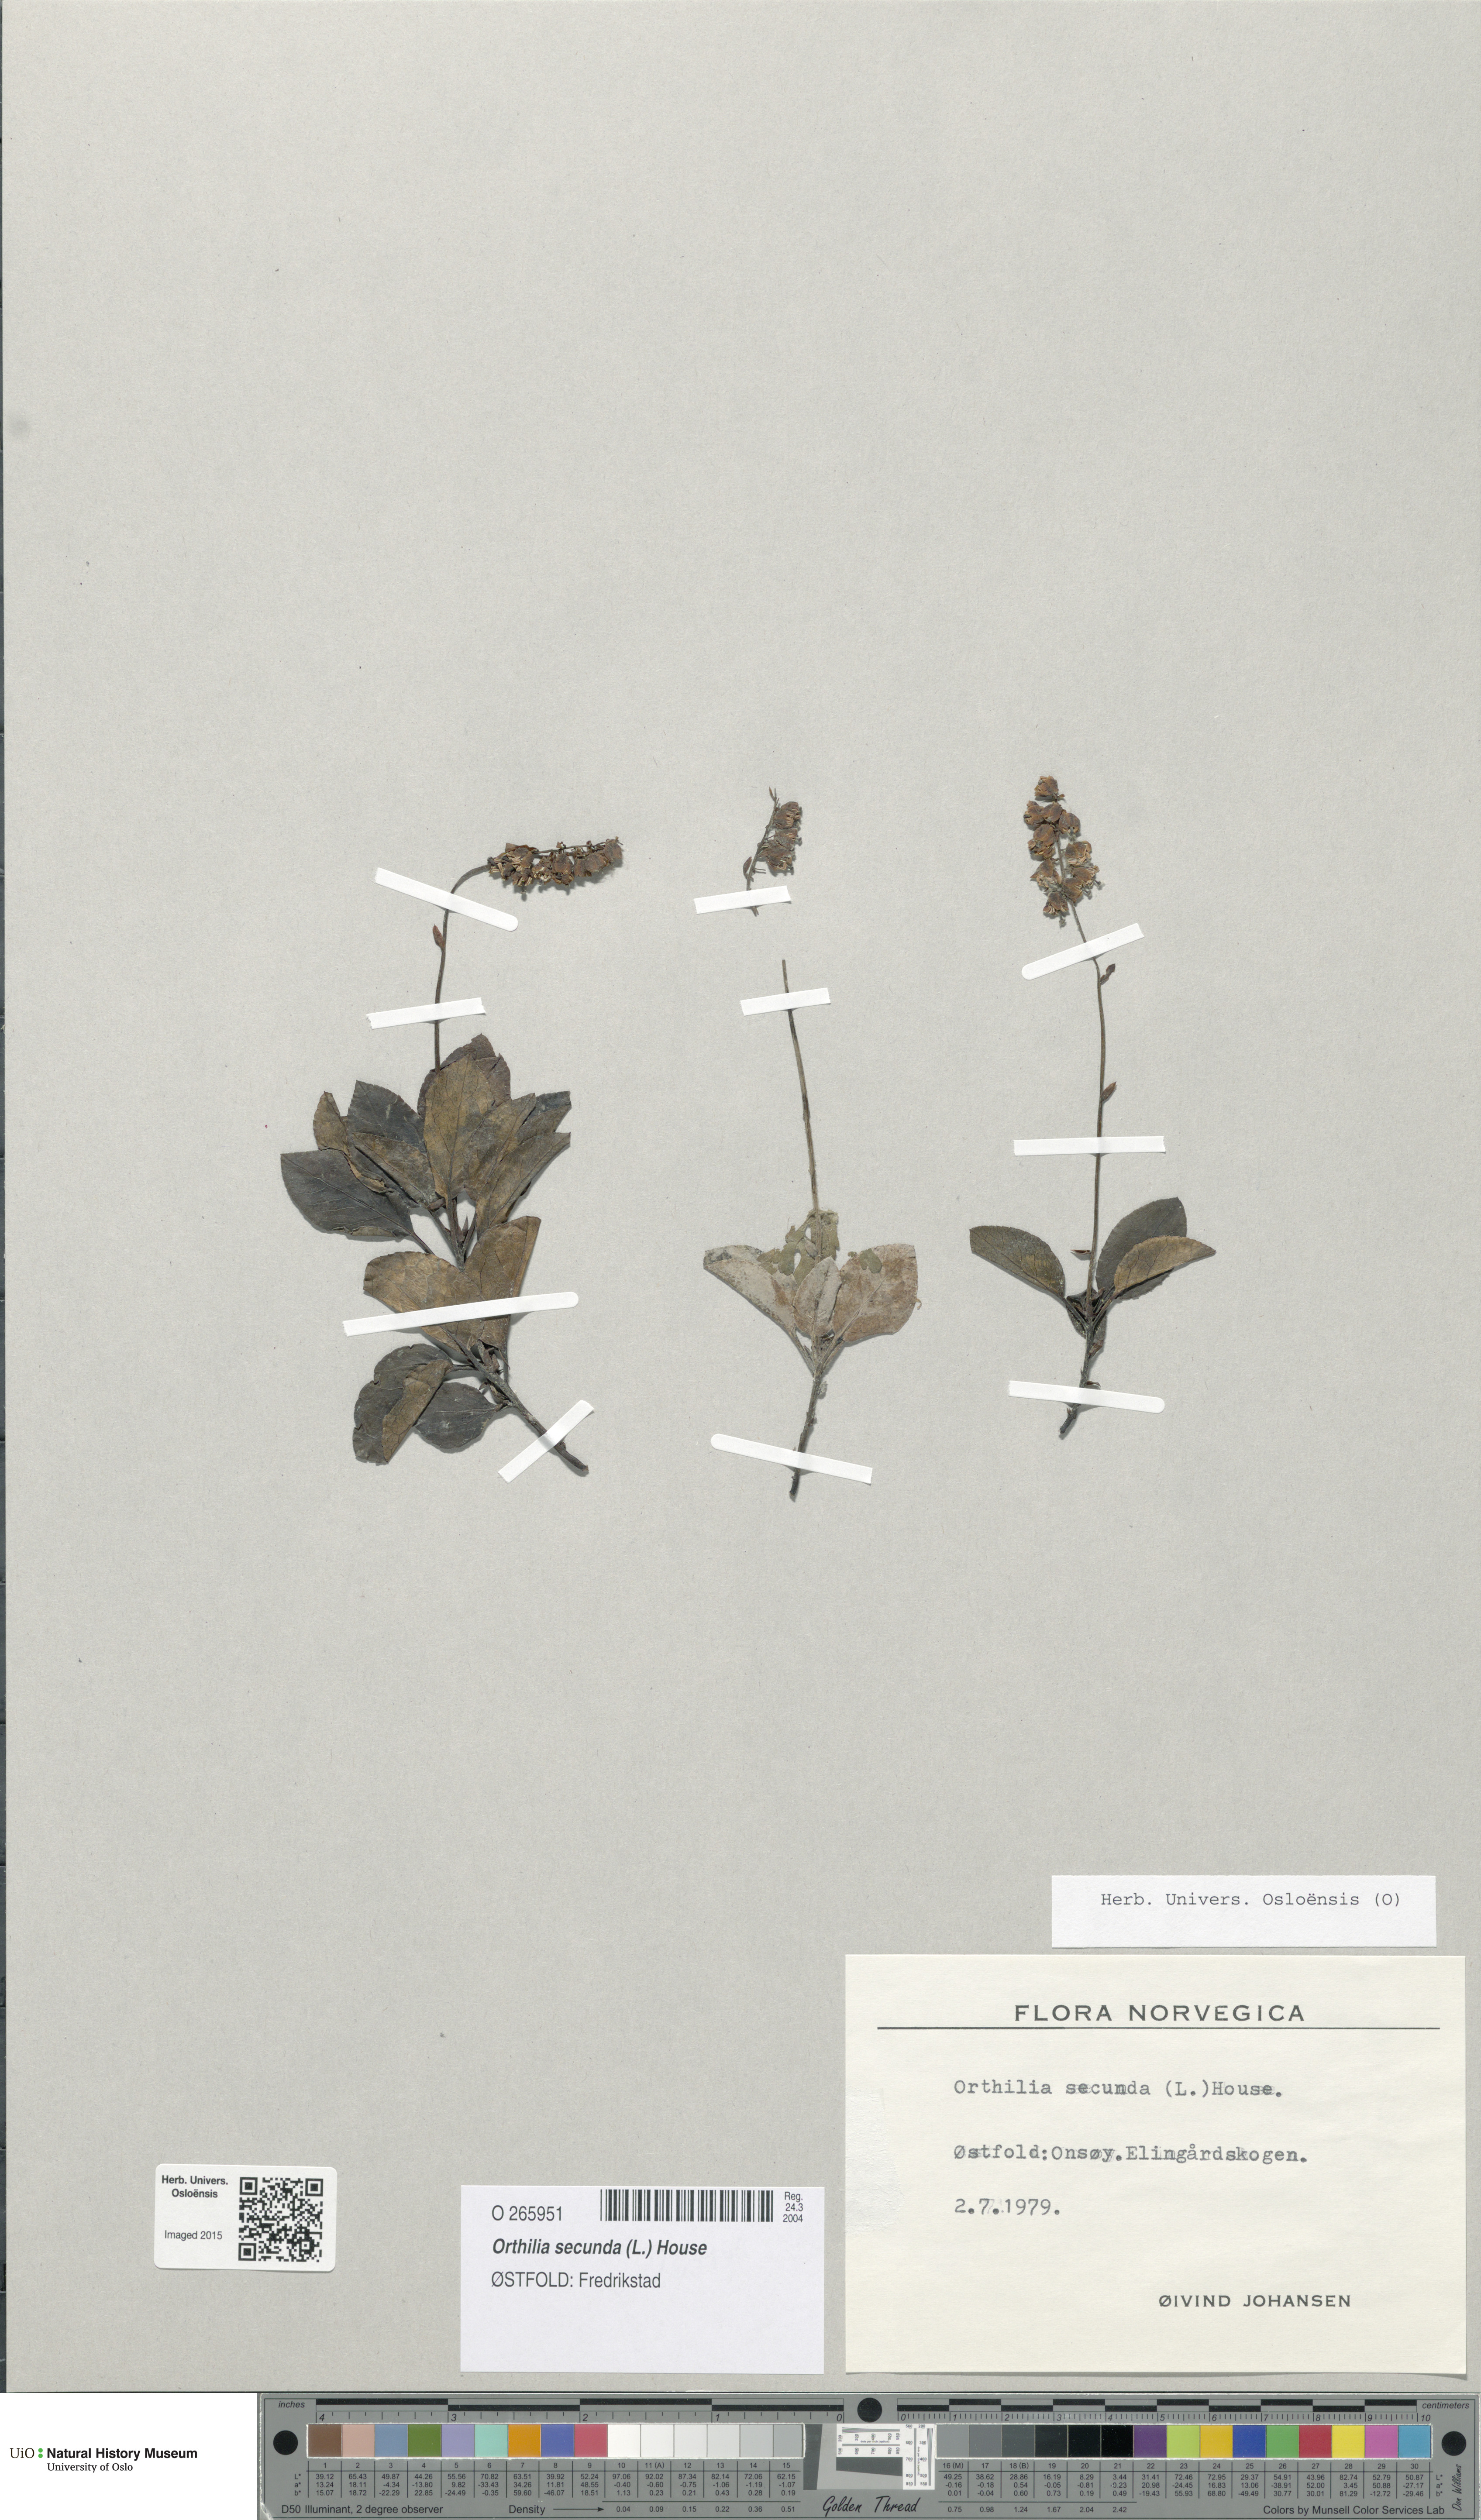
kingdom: Plantae
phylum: Tracheophyta
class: Magnoliopsida
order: Ericales
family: Ericaceae
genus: Orthilia
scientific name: Orthilia secunda
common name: One-sided orthilia
